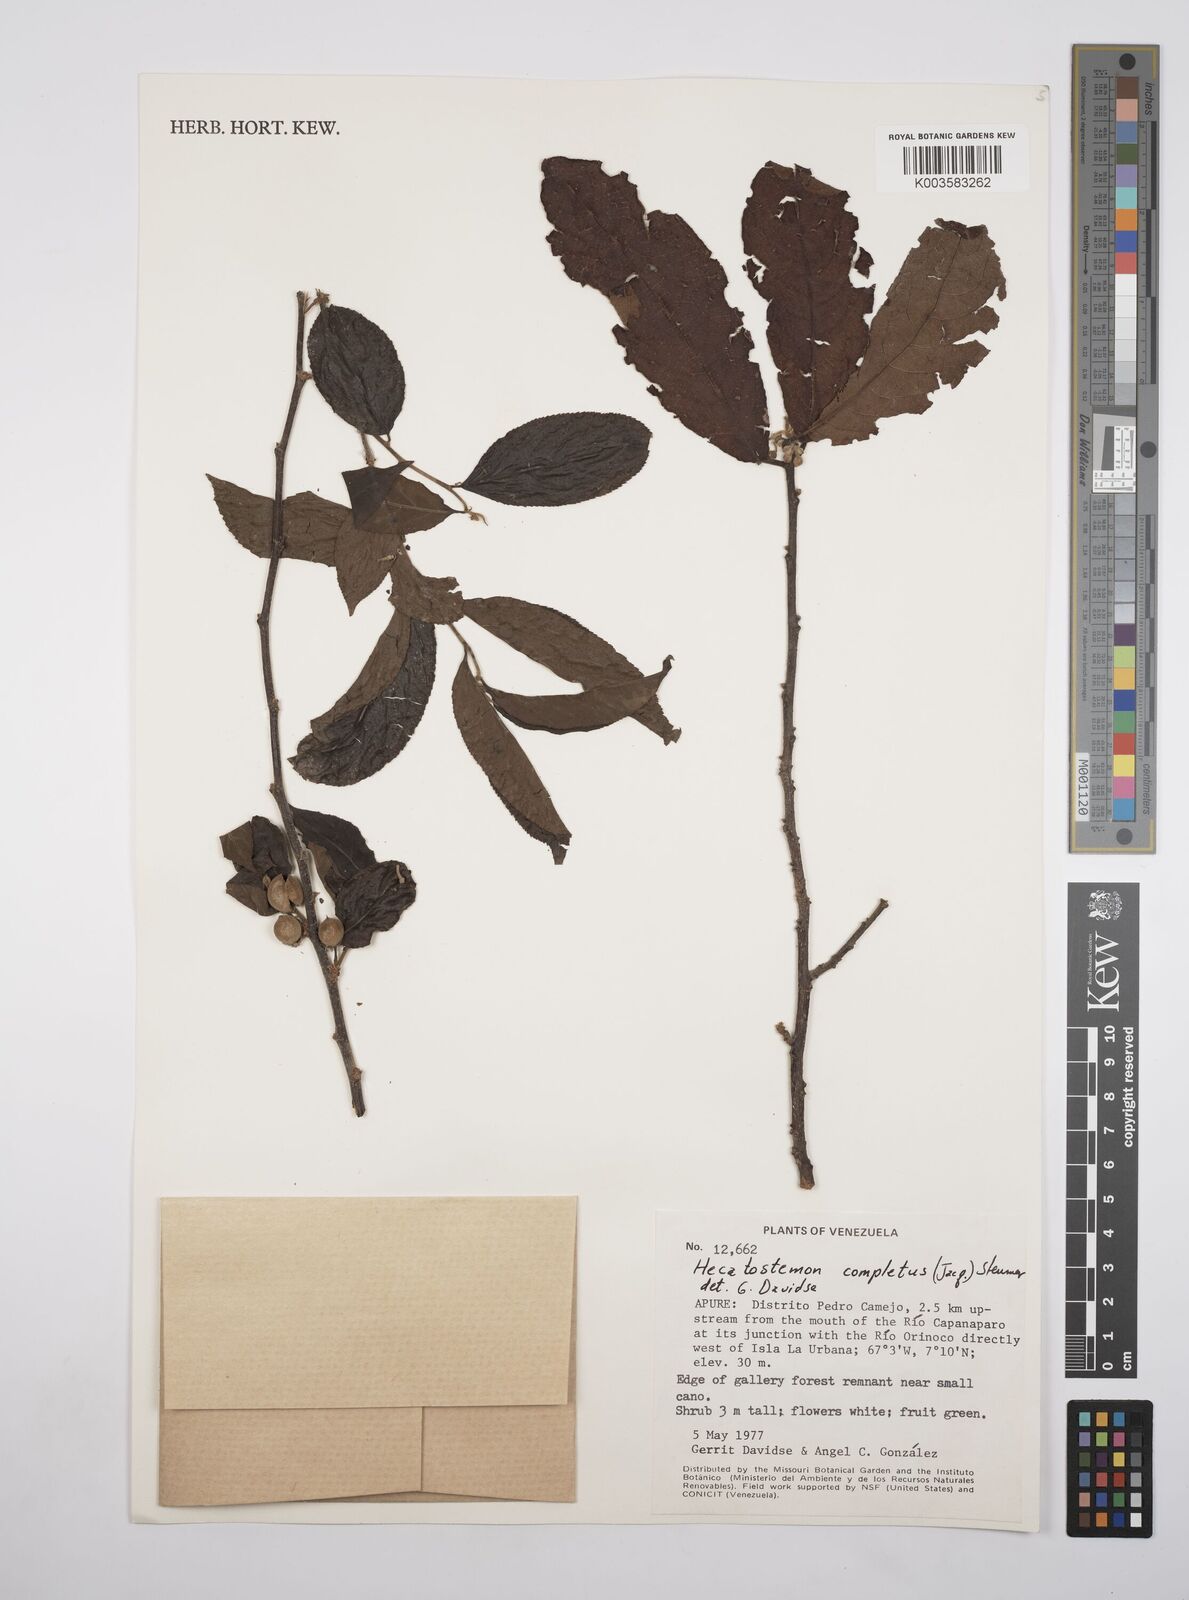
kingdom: Plantae
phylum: Tracheophyta
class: Magnoliopsida
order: Malpighiales
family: Salicaceae
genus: Casearia
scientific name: Casearia completa
